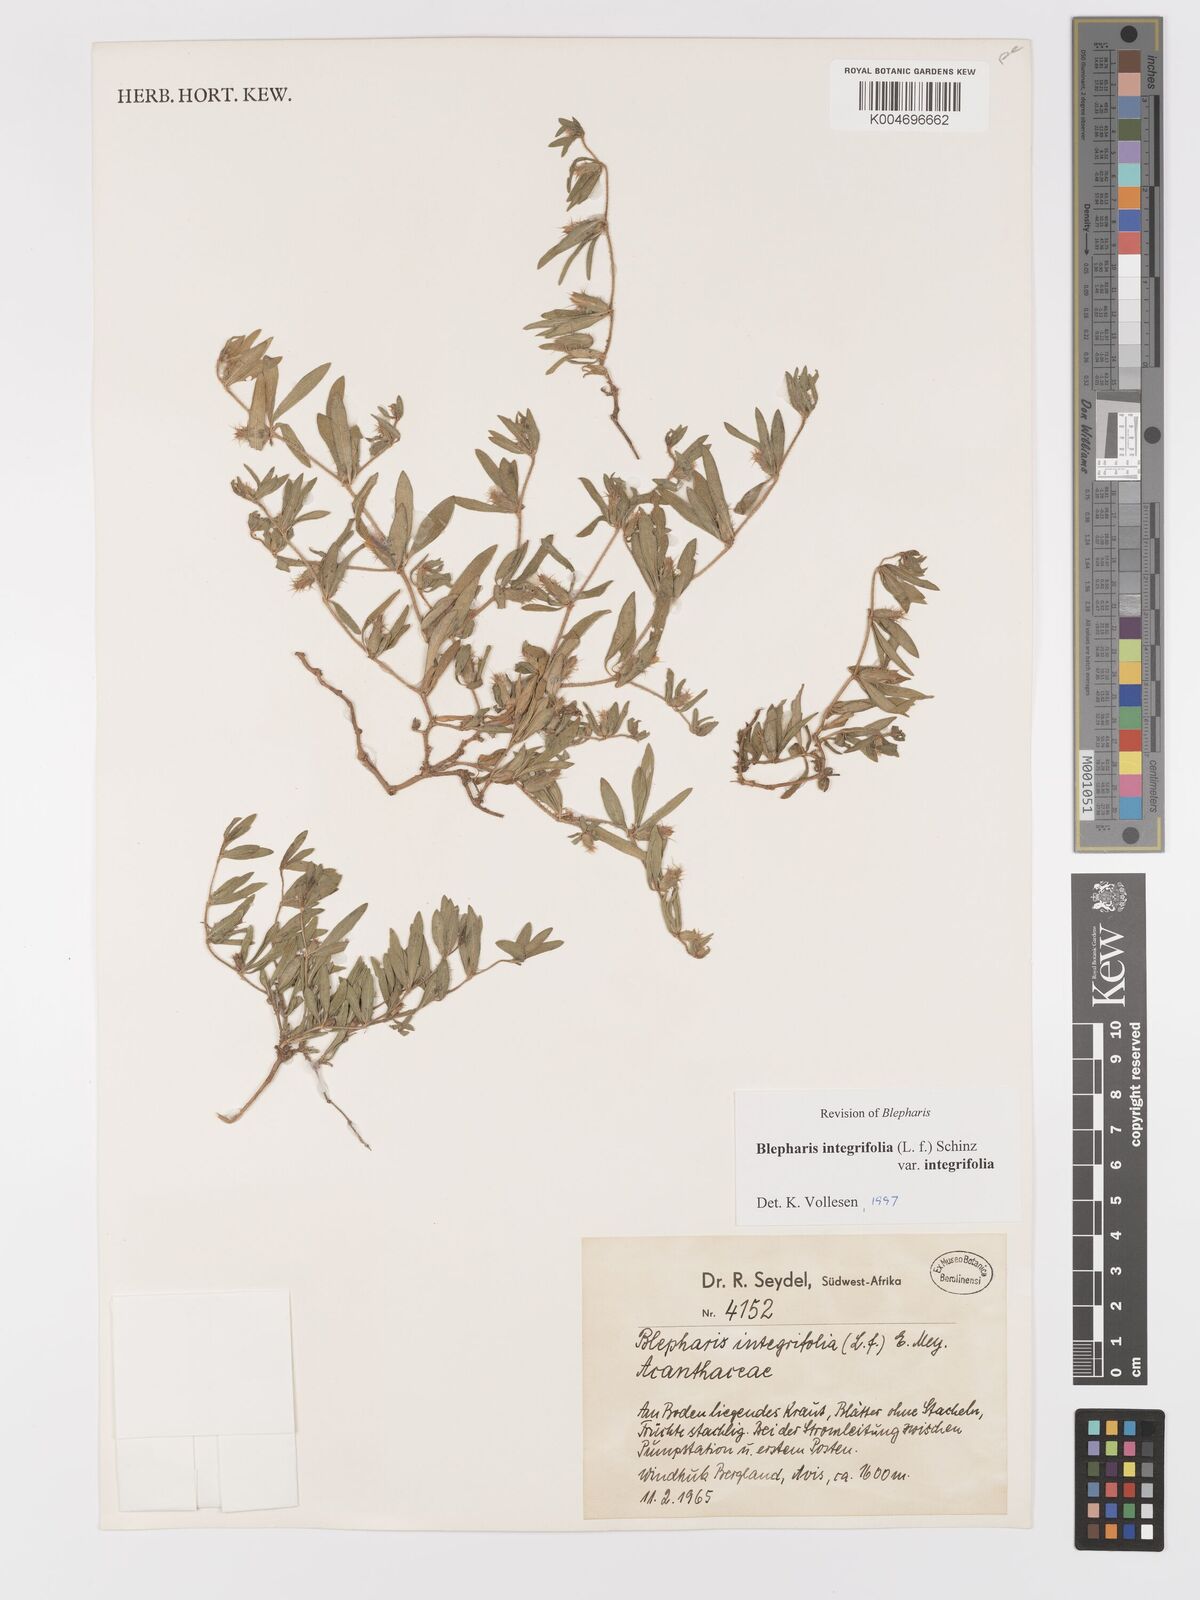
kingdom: Plantae
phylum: Tracheophyta
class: Magnoliopsida
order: Lamiales
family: Acanthaceae
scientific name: Acanthaceae
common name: Acanthaceae
